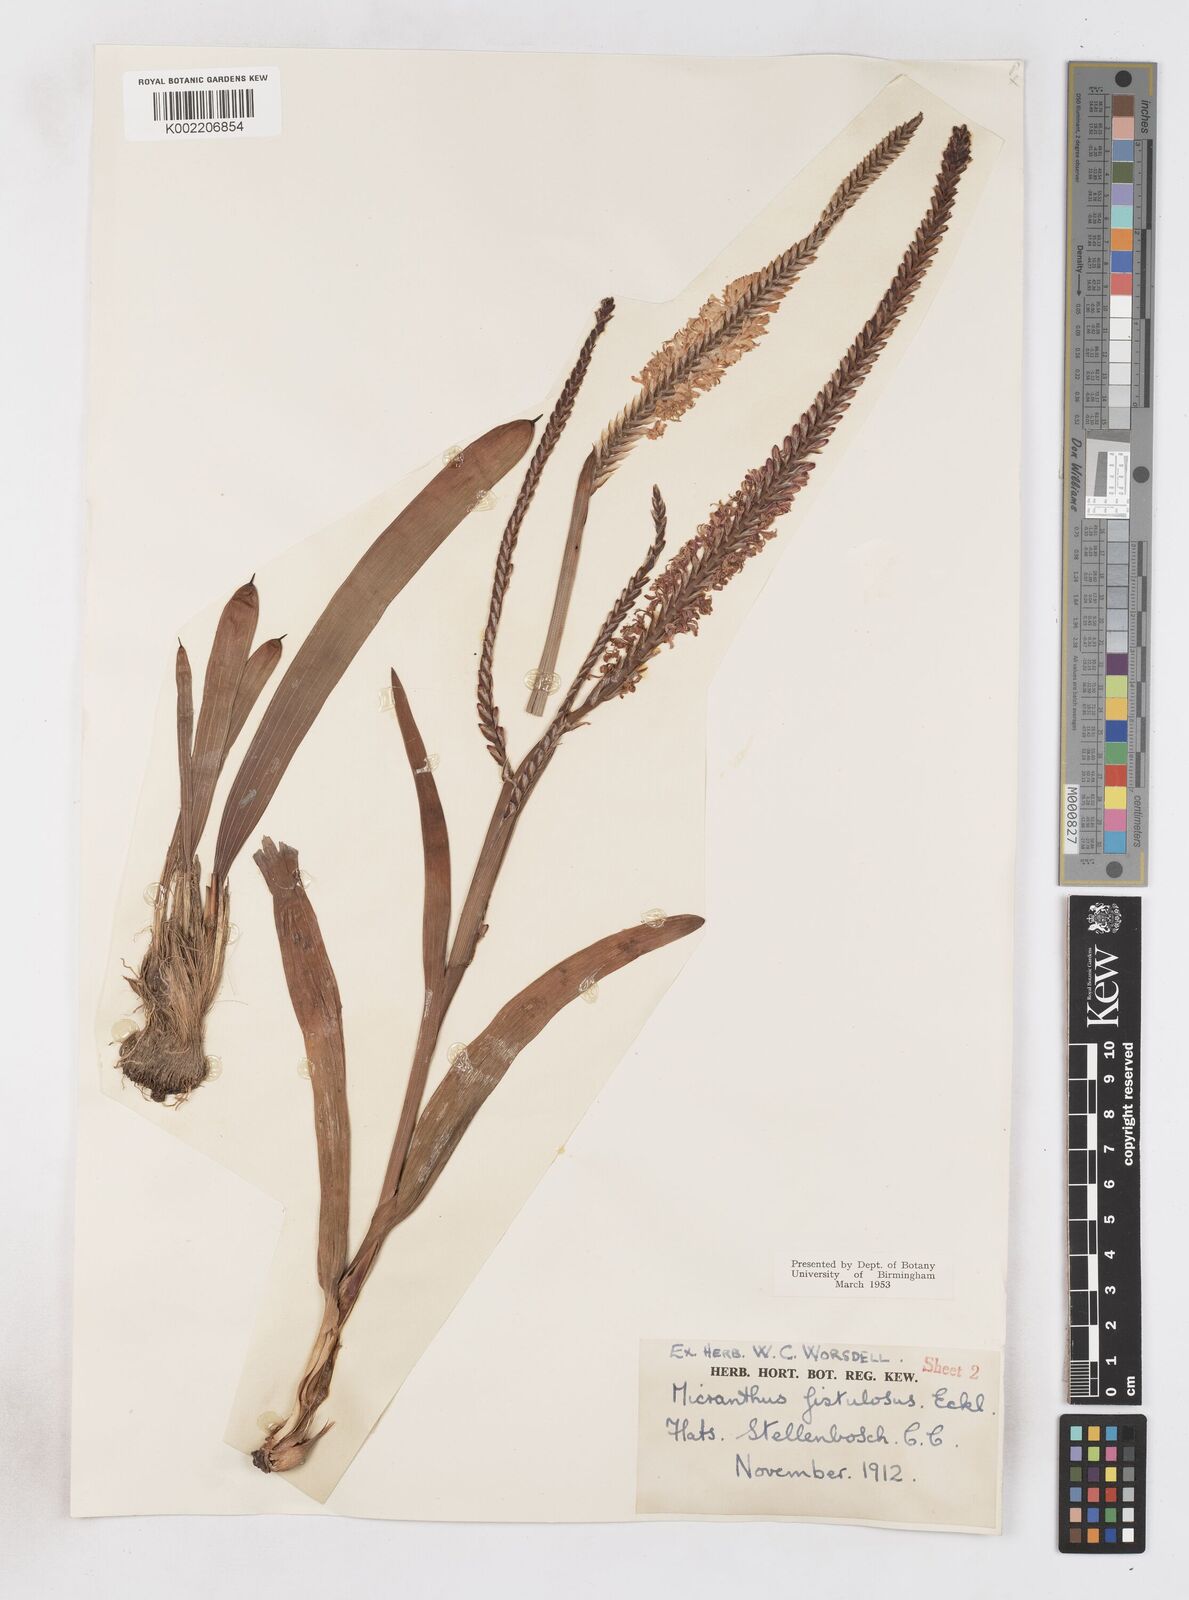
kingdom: Plantae
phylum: Tracheophyta
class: Liliopsida
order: Asparagales
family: Iridaceae
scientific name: Iridaceae
